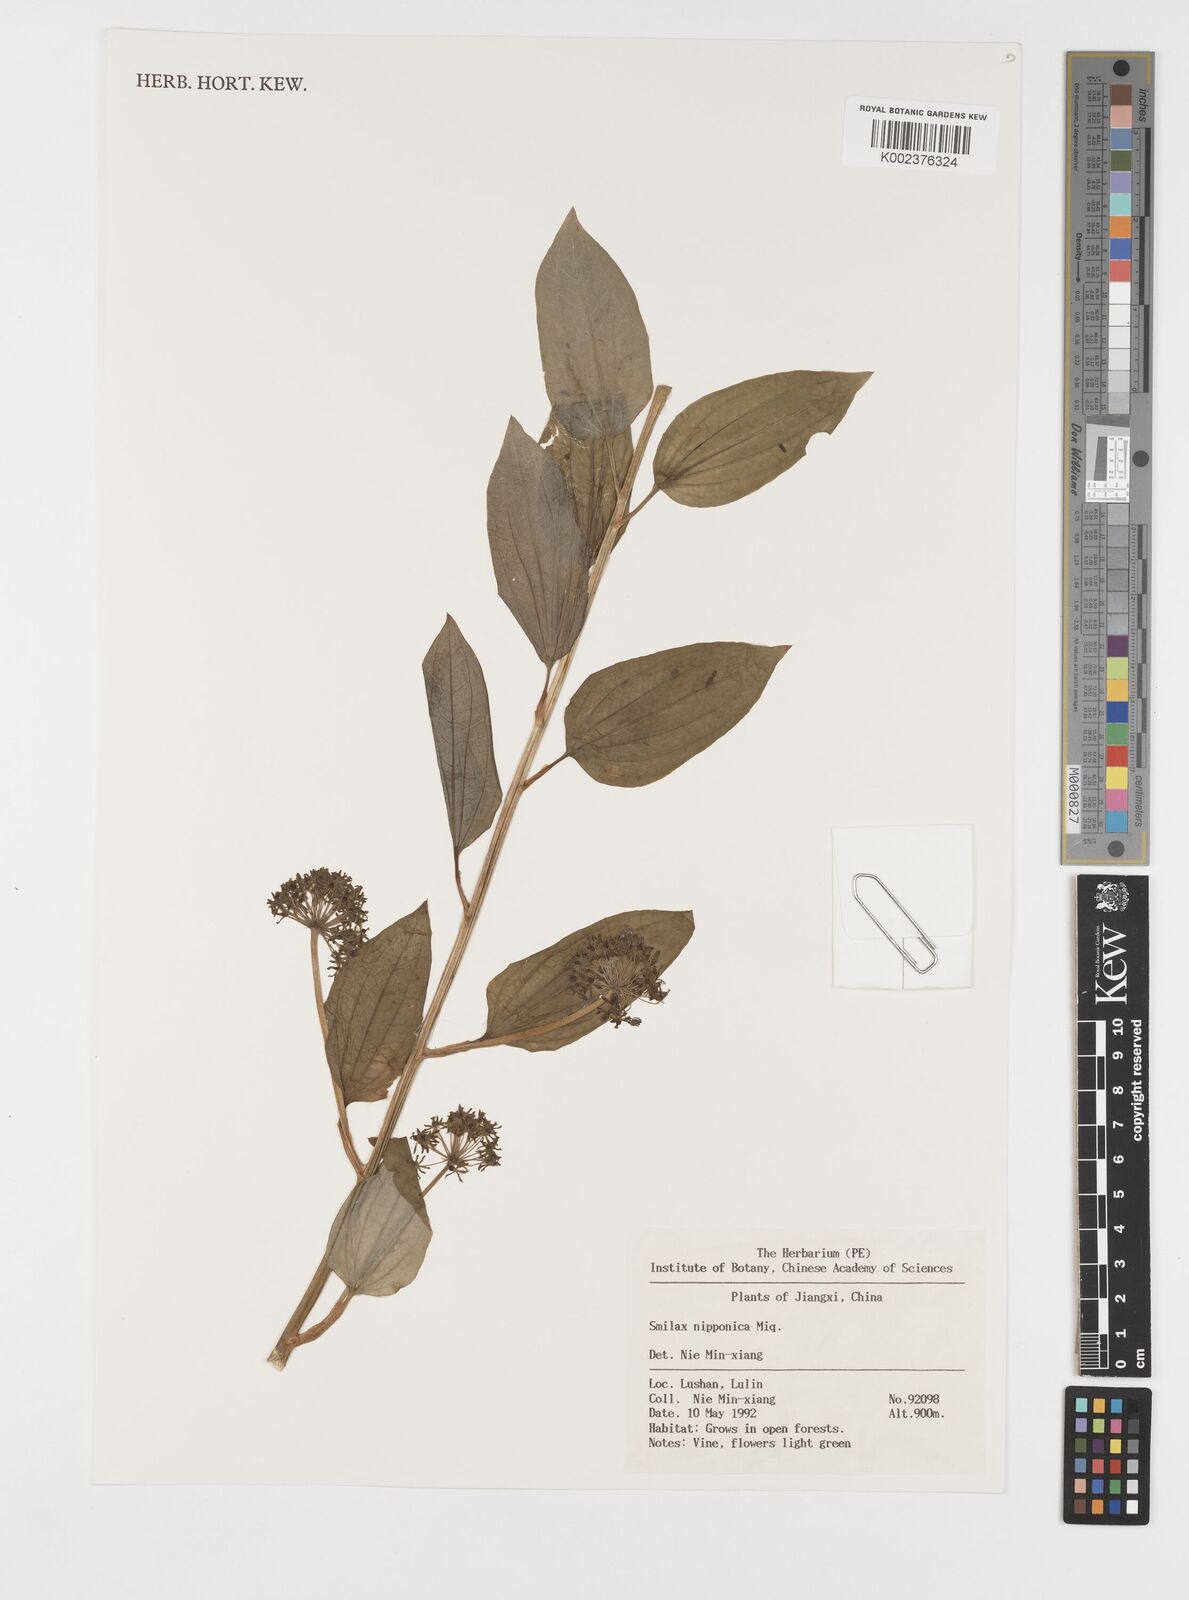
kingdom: Plantae
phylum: Tracheophyta
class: Liliopsida
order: Liliales
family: Smilacaceae
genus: Smilax
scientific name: Smilax nipponica
